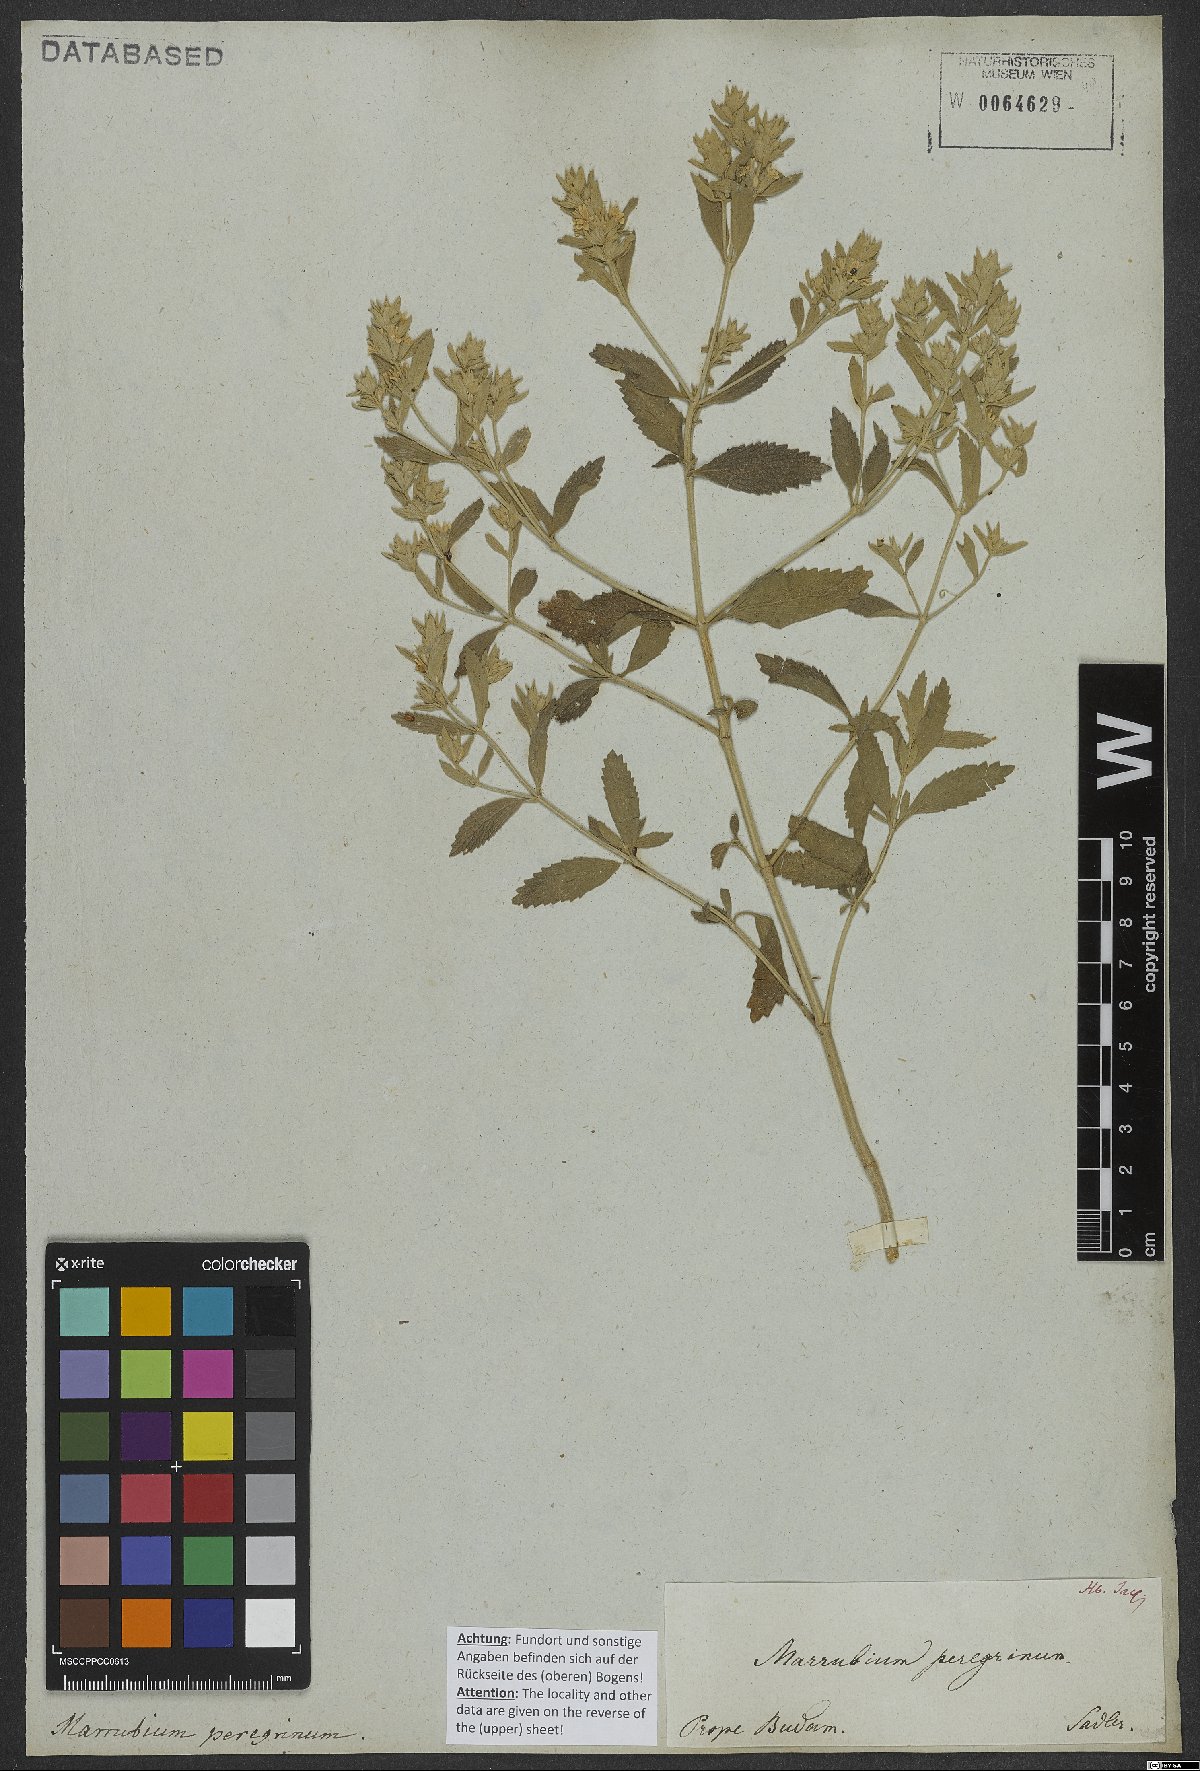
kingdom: Plantae
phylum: Tracheophyta
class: Magnoliopsida
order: Lamiales
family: Lamiaceae
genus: Marrubium
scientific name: Marrubium peregrinum
